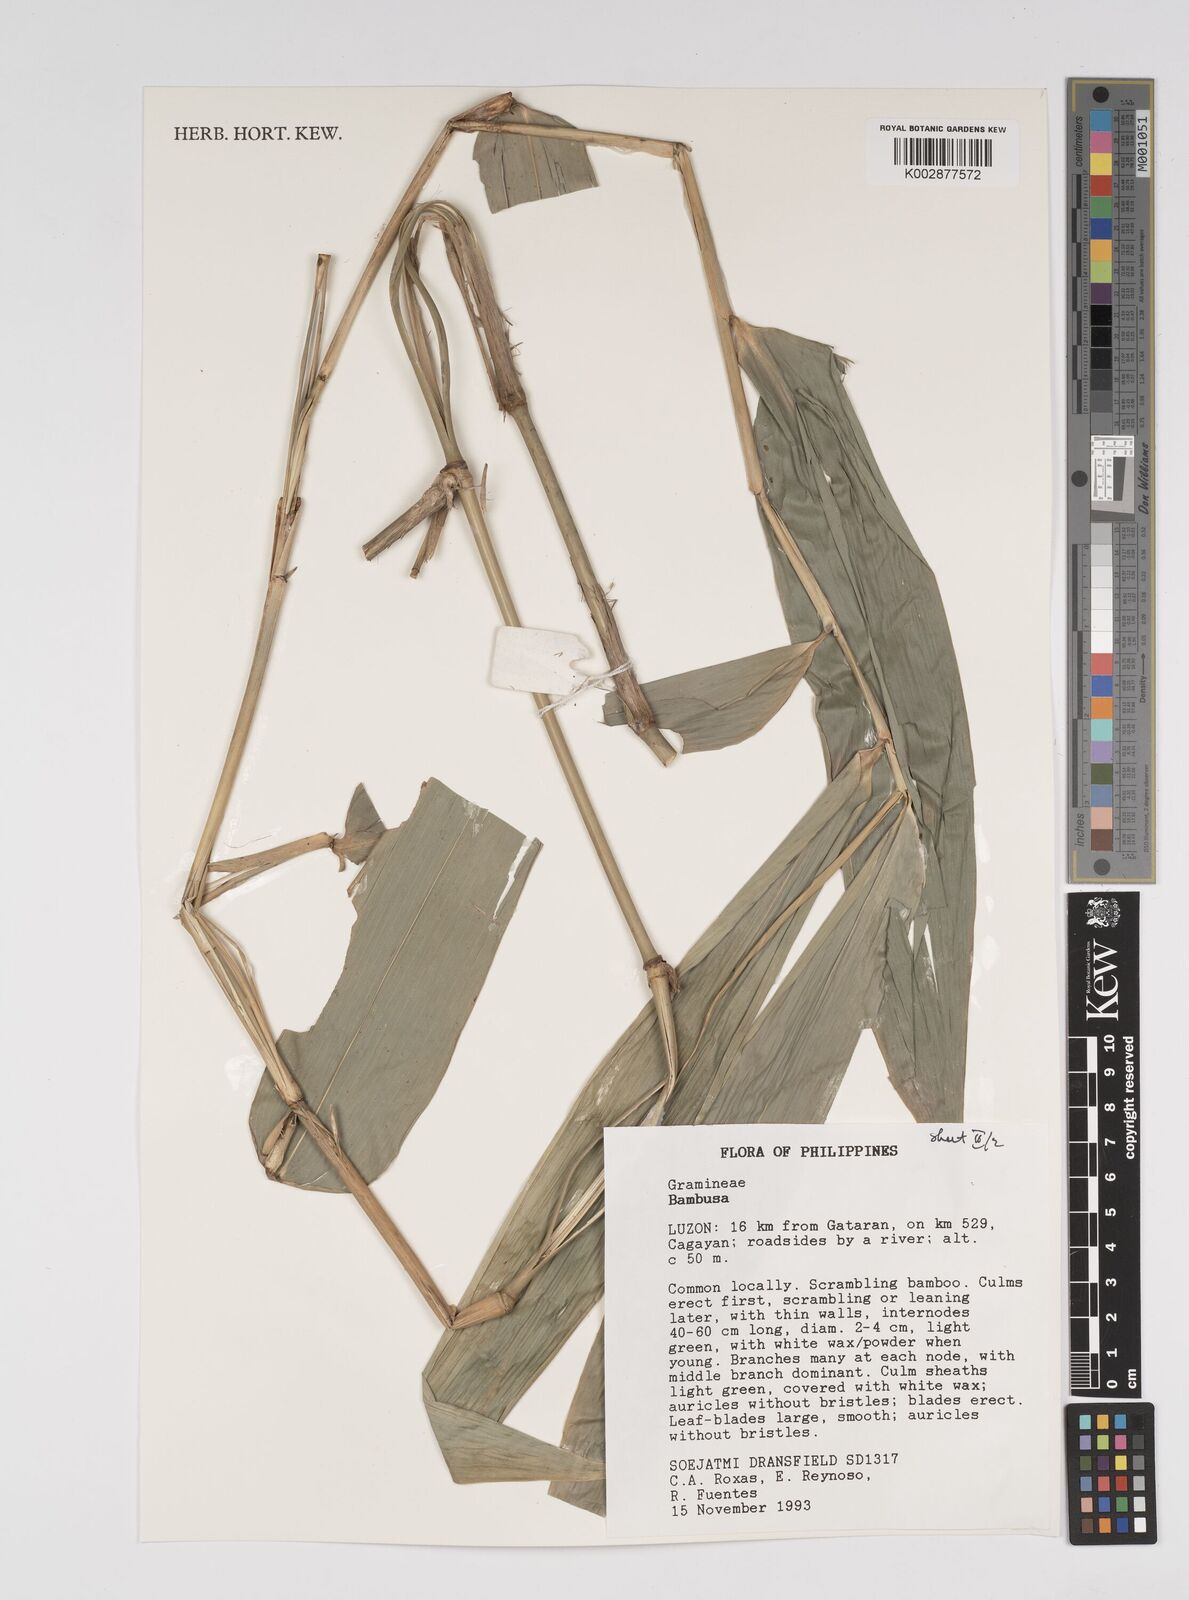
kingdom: Plantae
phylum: Tracheophyta
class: Liliopsida
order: Poales
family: Poaceae
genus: Bambusa
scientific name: Bambusa
